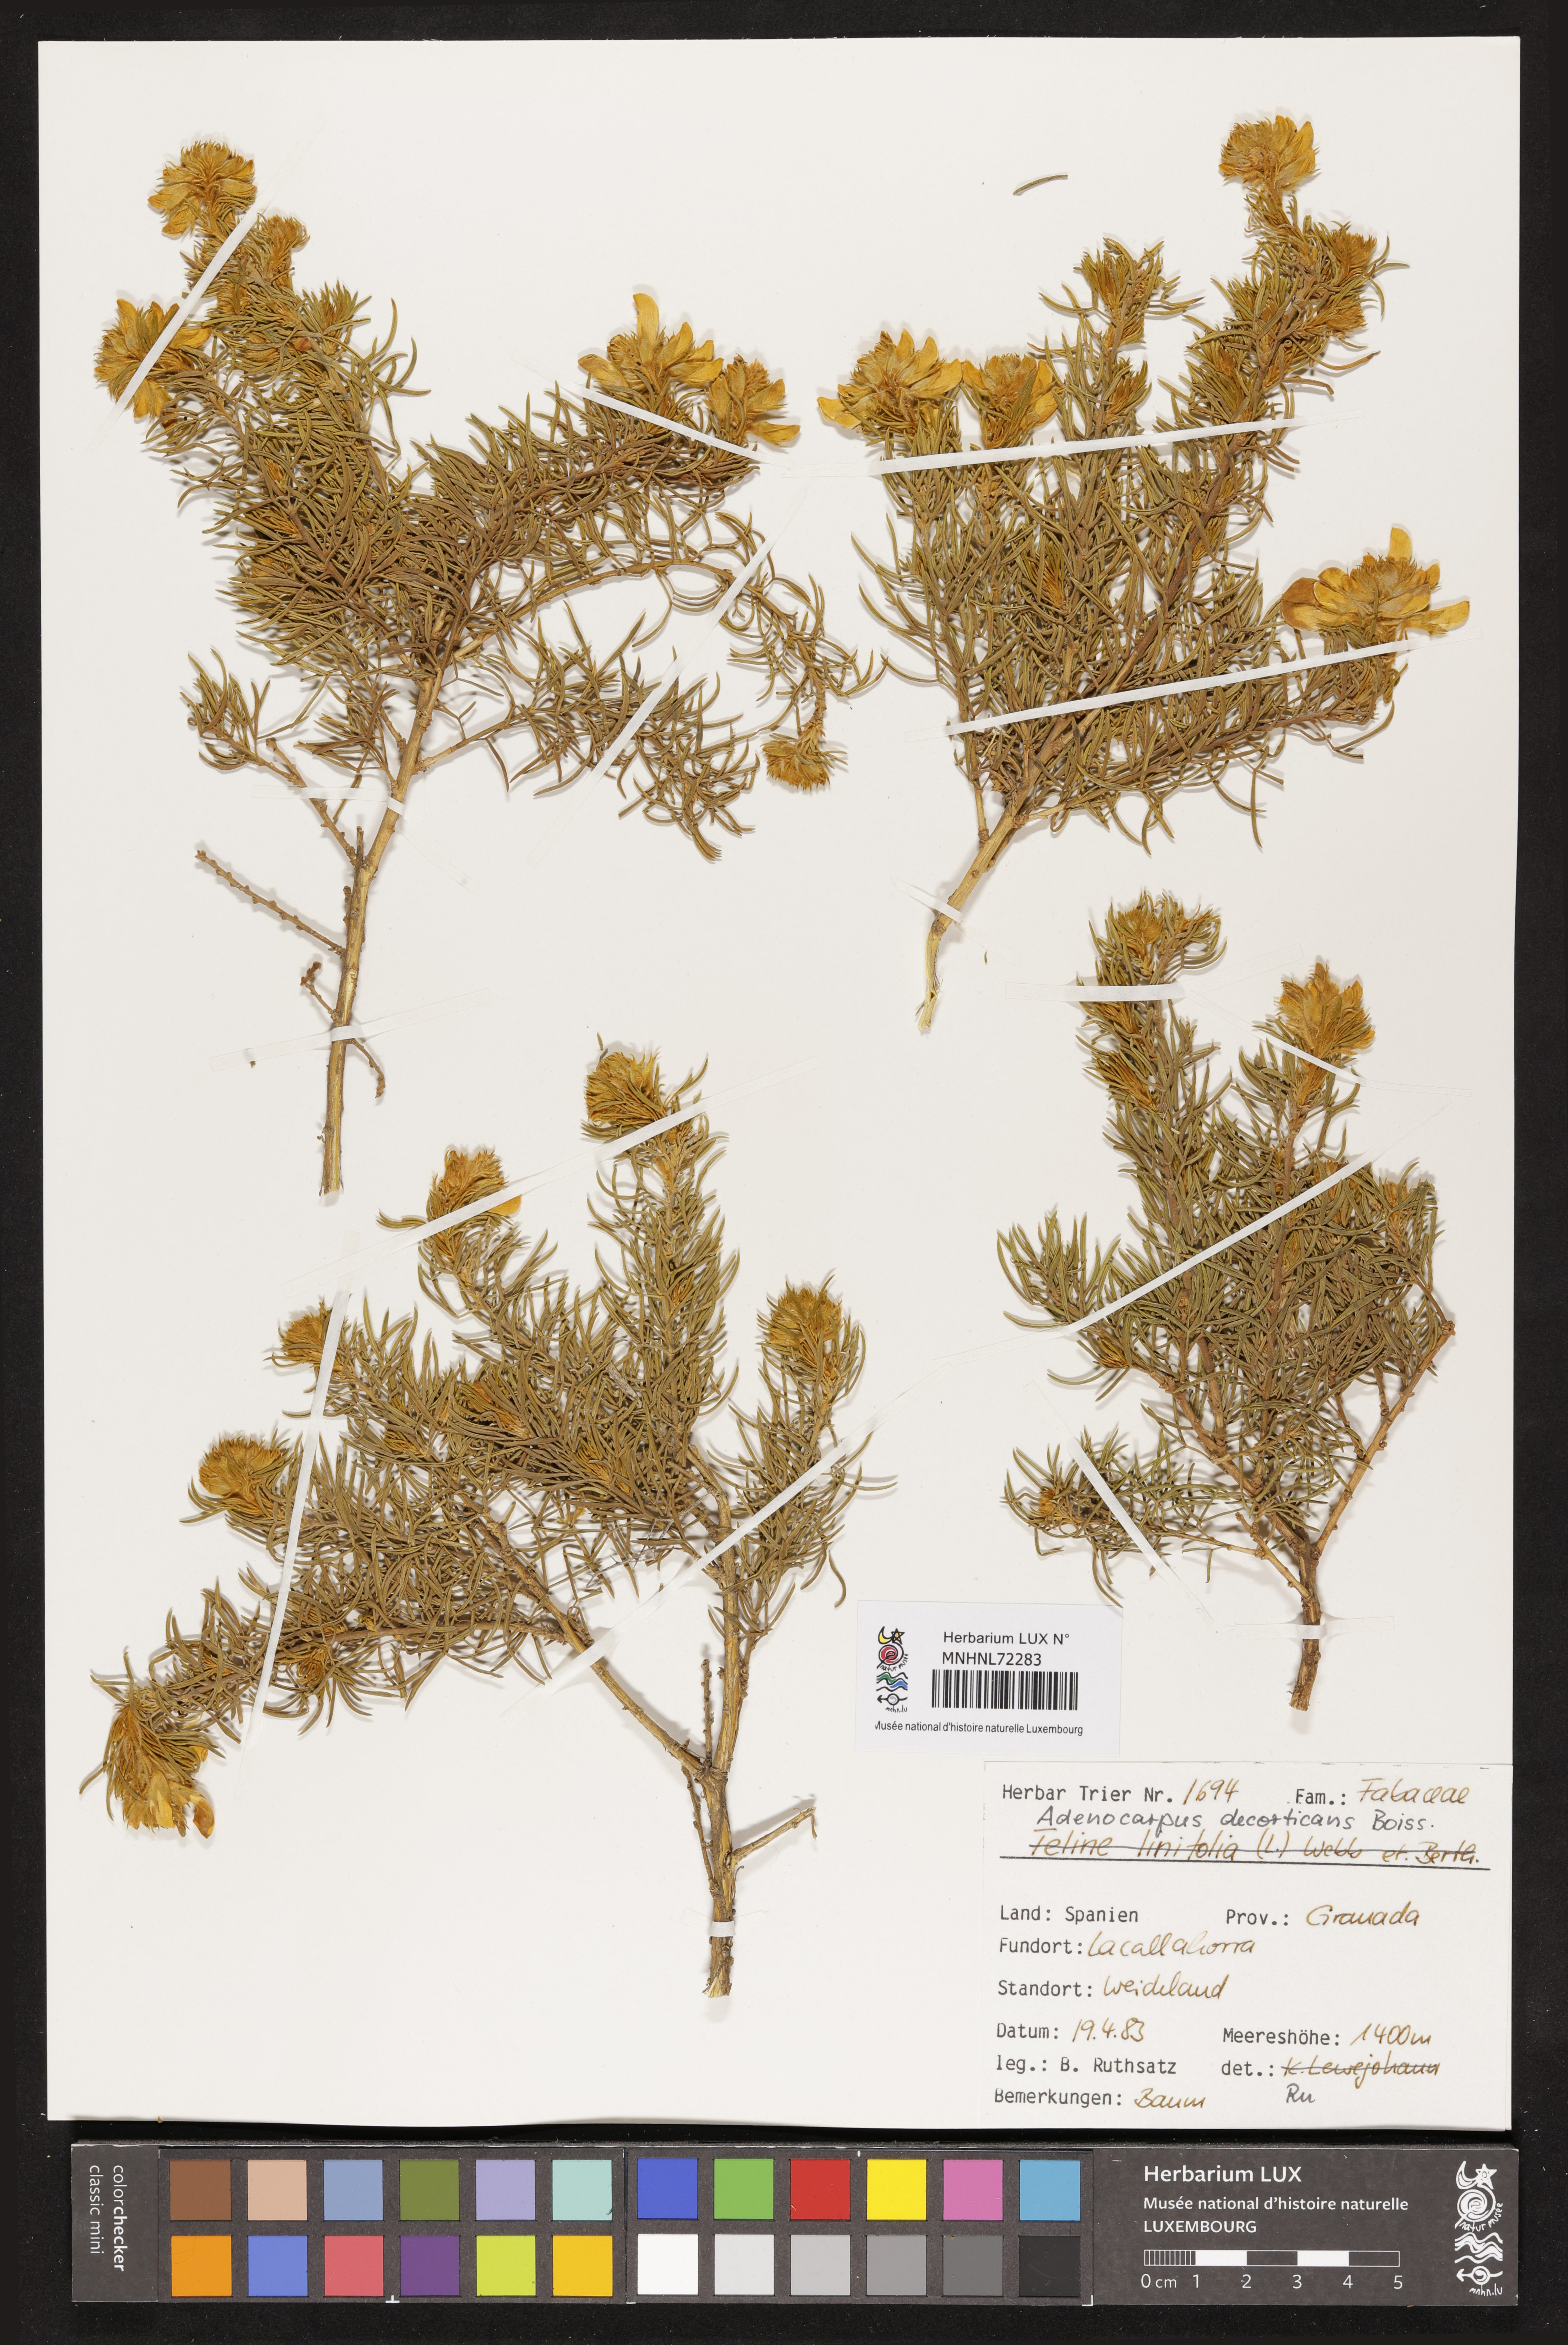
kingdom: Plantae
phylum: Tracheophyta
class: Magnoliopsida
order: Fabales
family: Fabaceae
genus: Adenocarpus
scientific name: Adenocarpus decorticans
